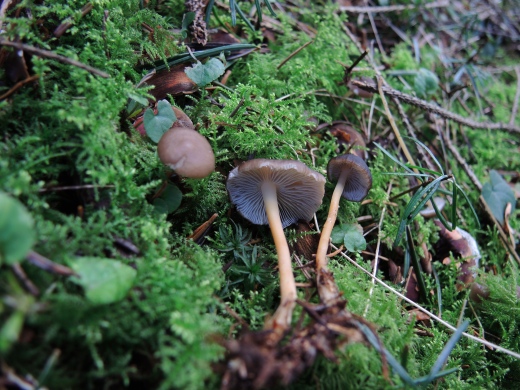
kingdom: Fungi
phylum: Basidiomycota
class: Agaricomycetes
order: Agaricales
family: Physalacriaceae
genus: Strobilurus
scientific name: Strobilurus esculentus
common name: gran-koglehat
